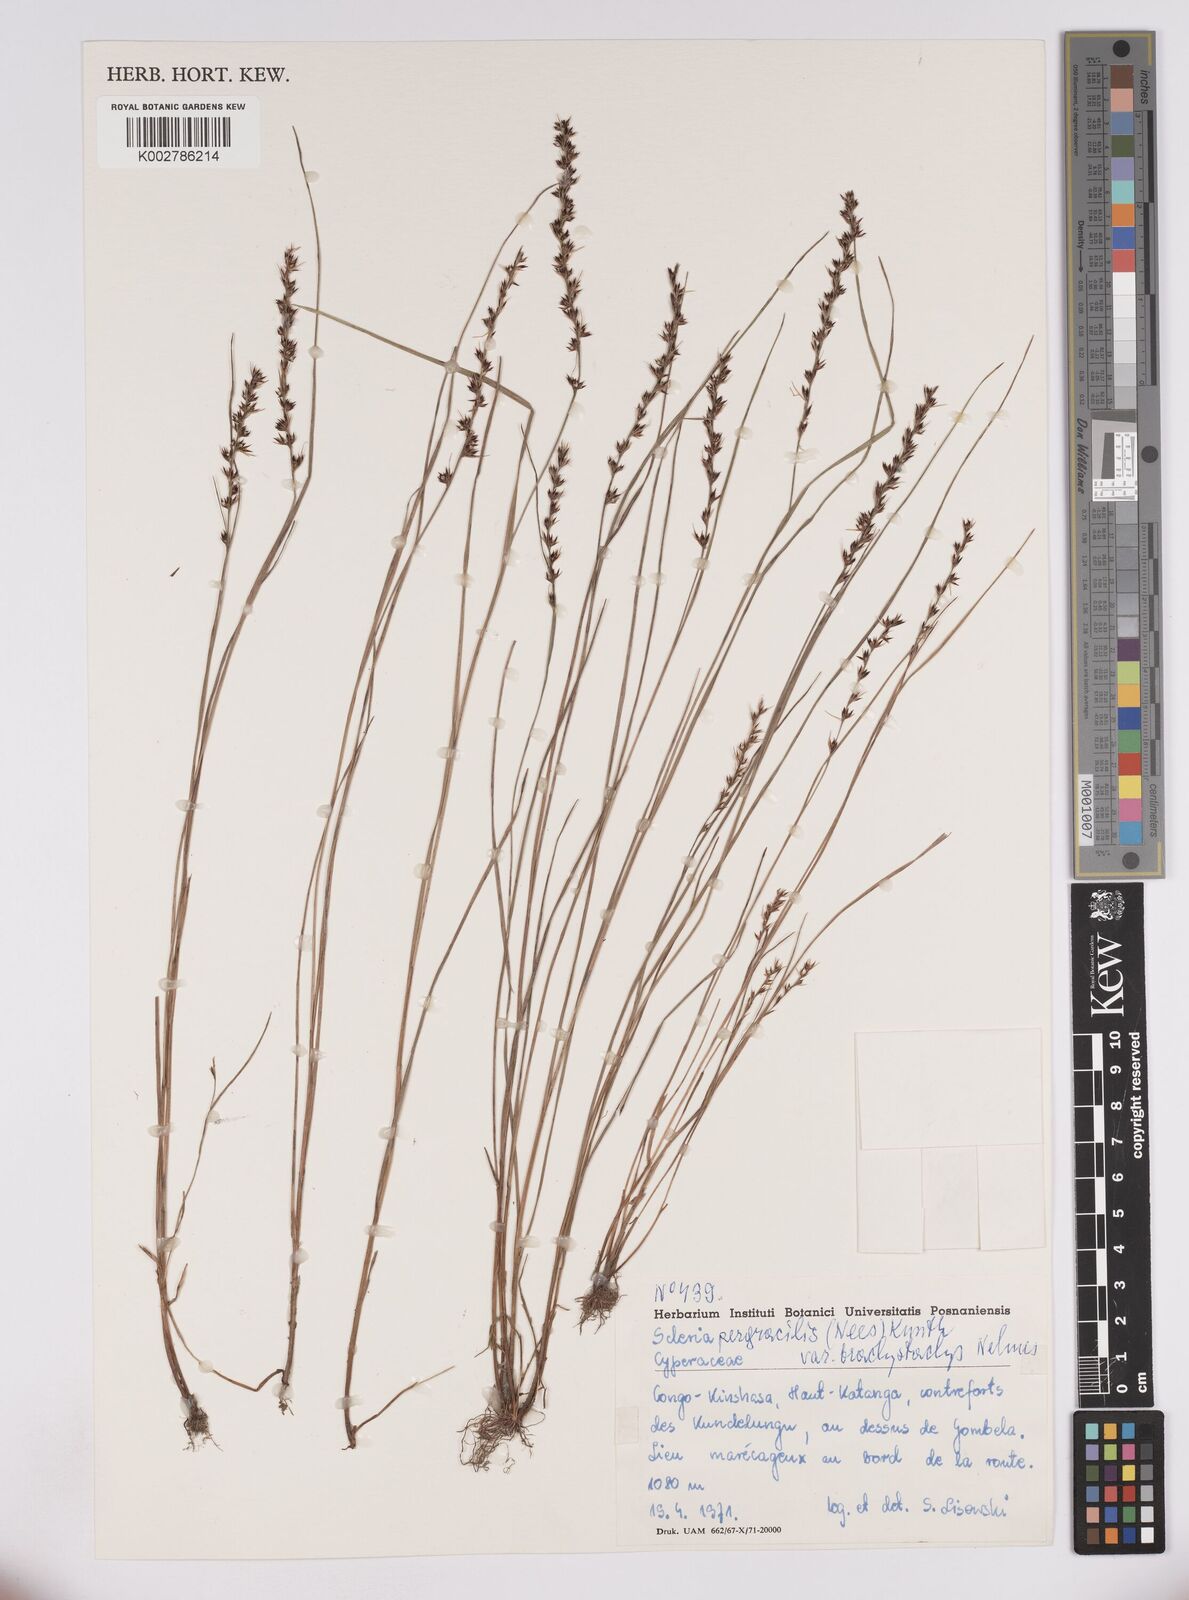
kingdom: Plantae
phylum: Tracheophyta
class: Liliopsida
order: Poales
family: Cyperaceae
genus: Scleria
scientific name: Scleria pergracilis
